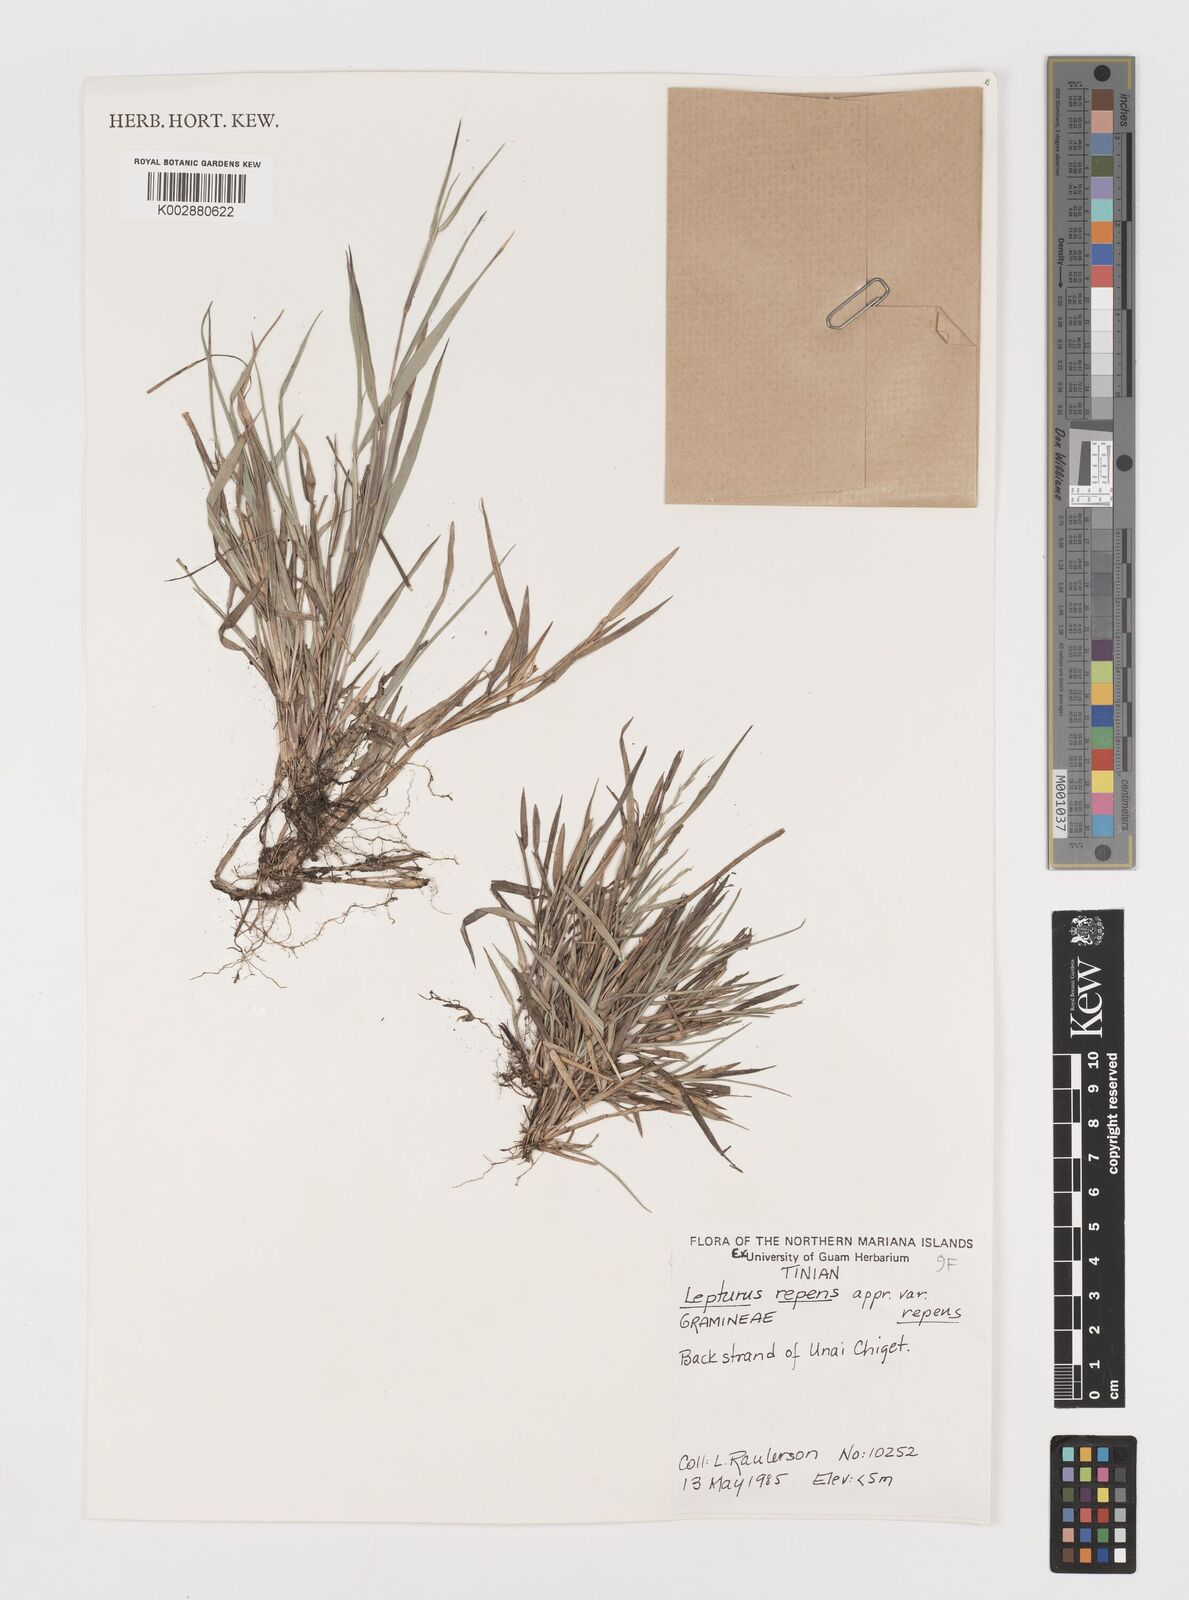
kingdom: Plantae
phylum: Tracheophyta
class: Liliopsida
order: Poales
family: Poaceae
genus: Lepturus
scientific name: Lepturus repens
